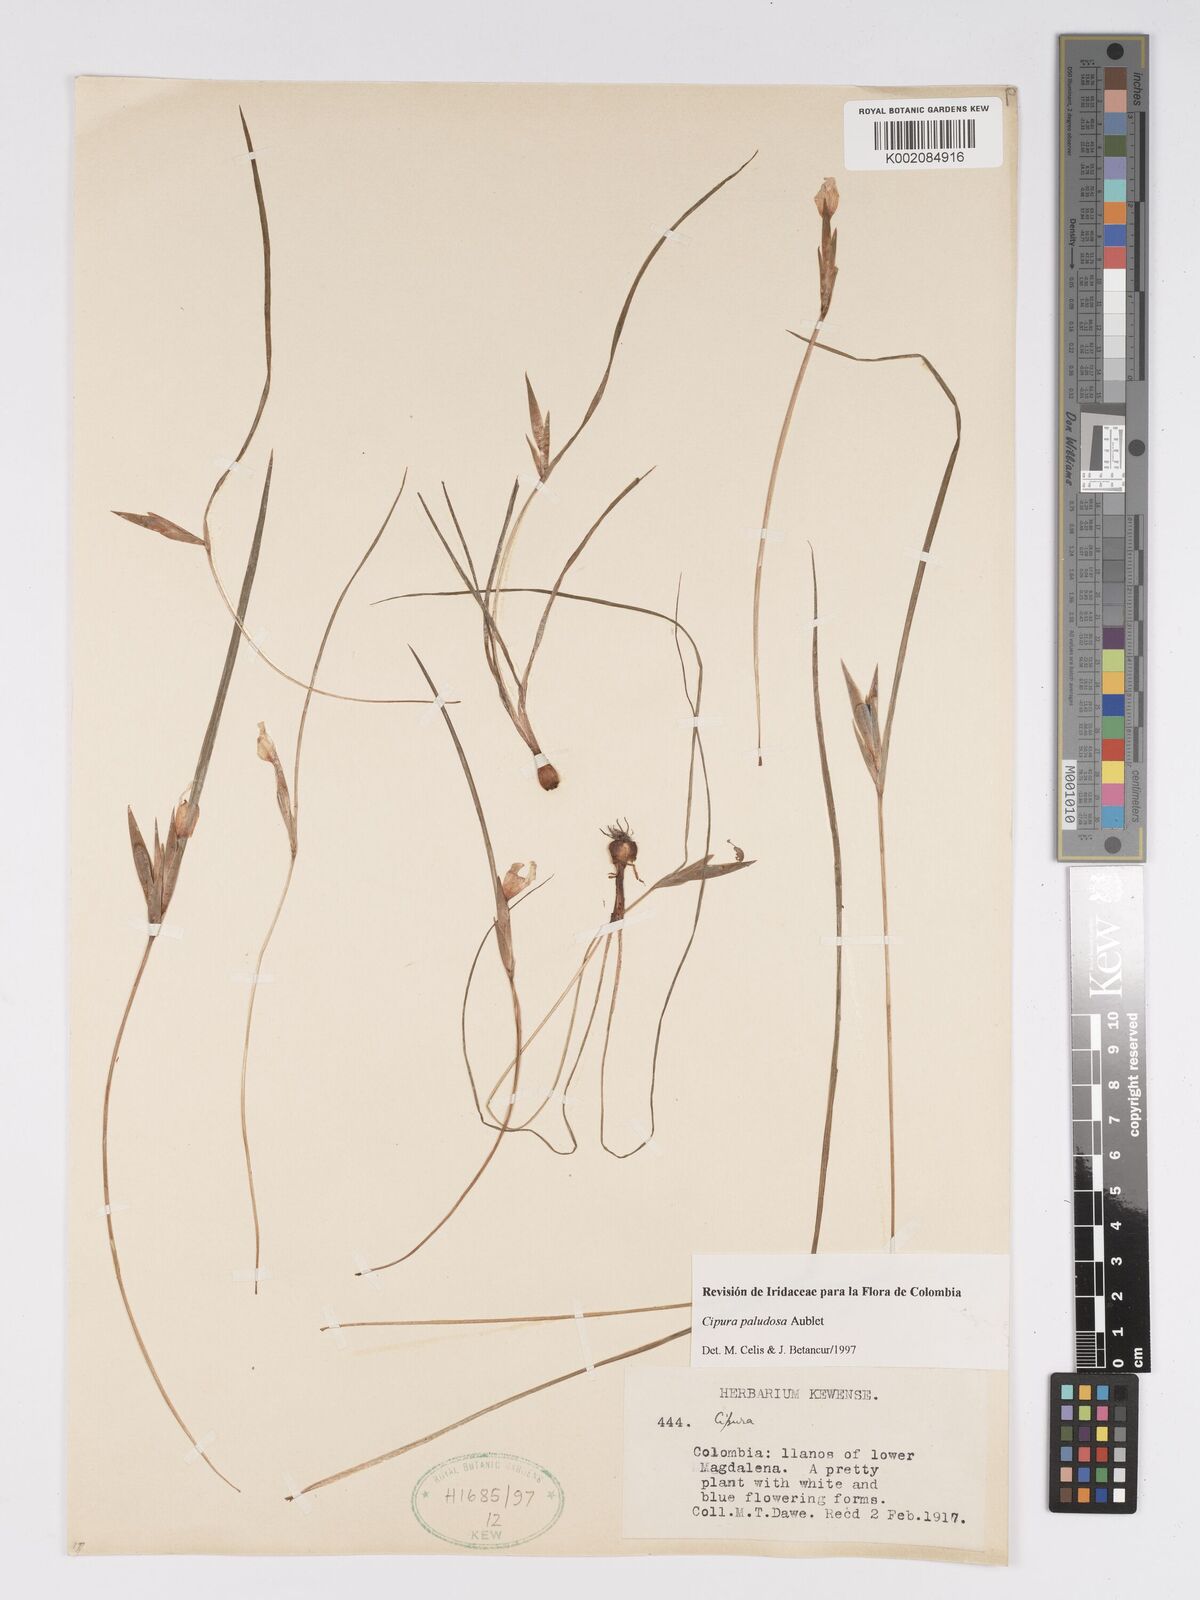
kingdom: Plantae
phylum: Tracheophyta
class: Liliopsida
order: Asparagales
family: Iridaceae
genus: Cipura
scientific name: Cipura paludosa
